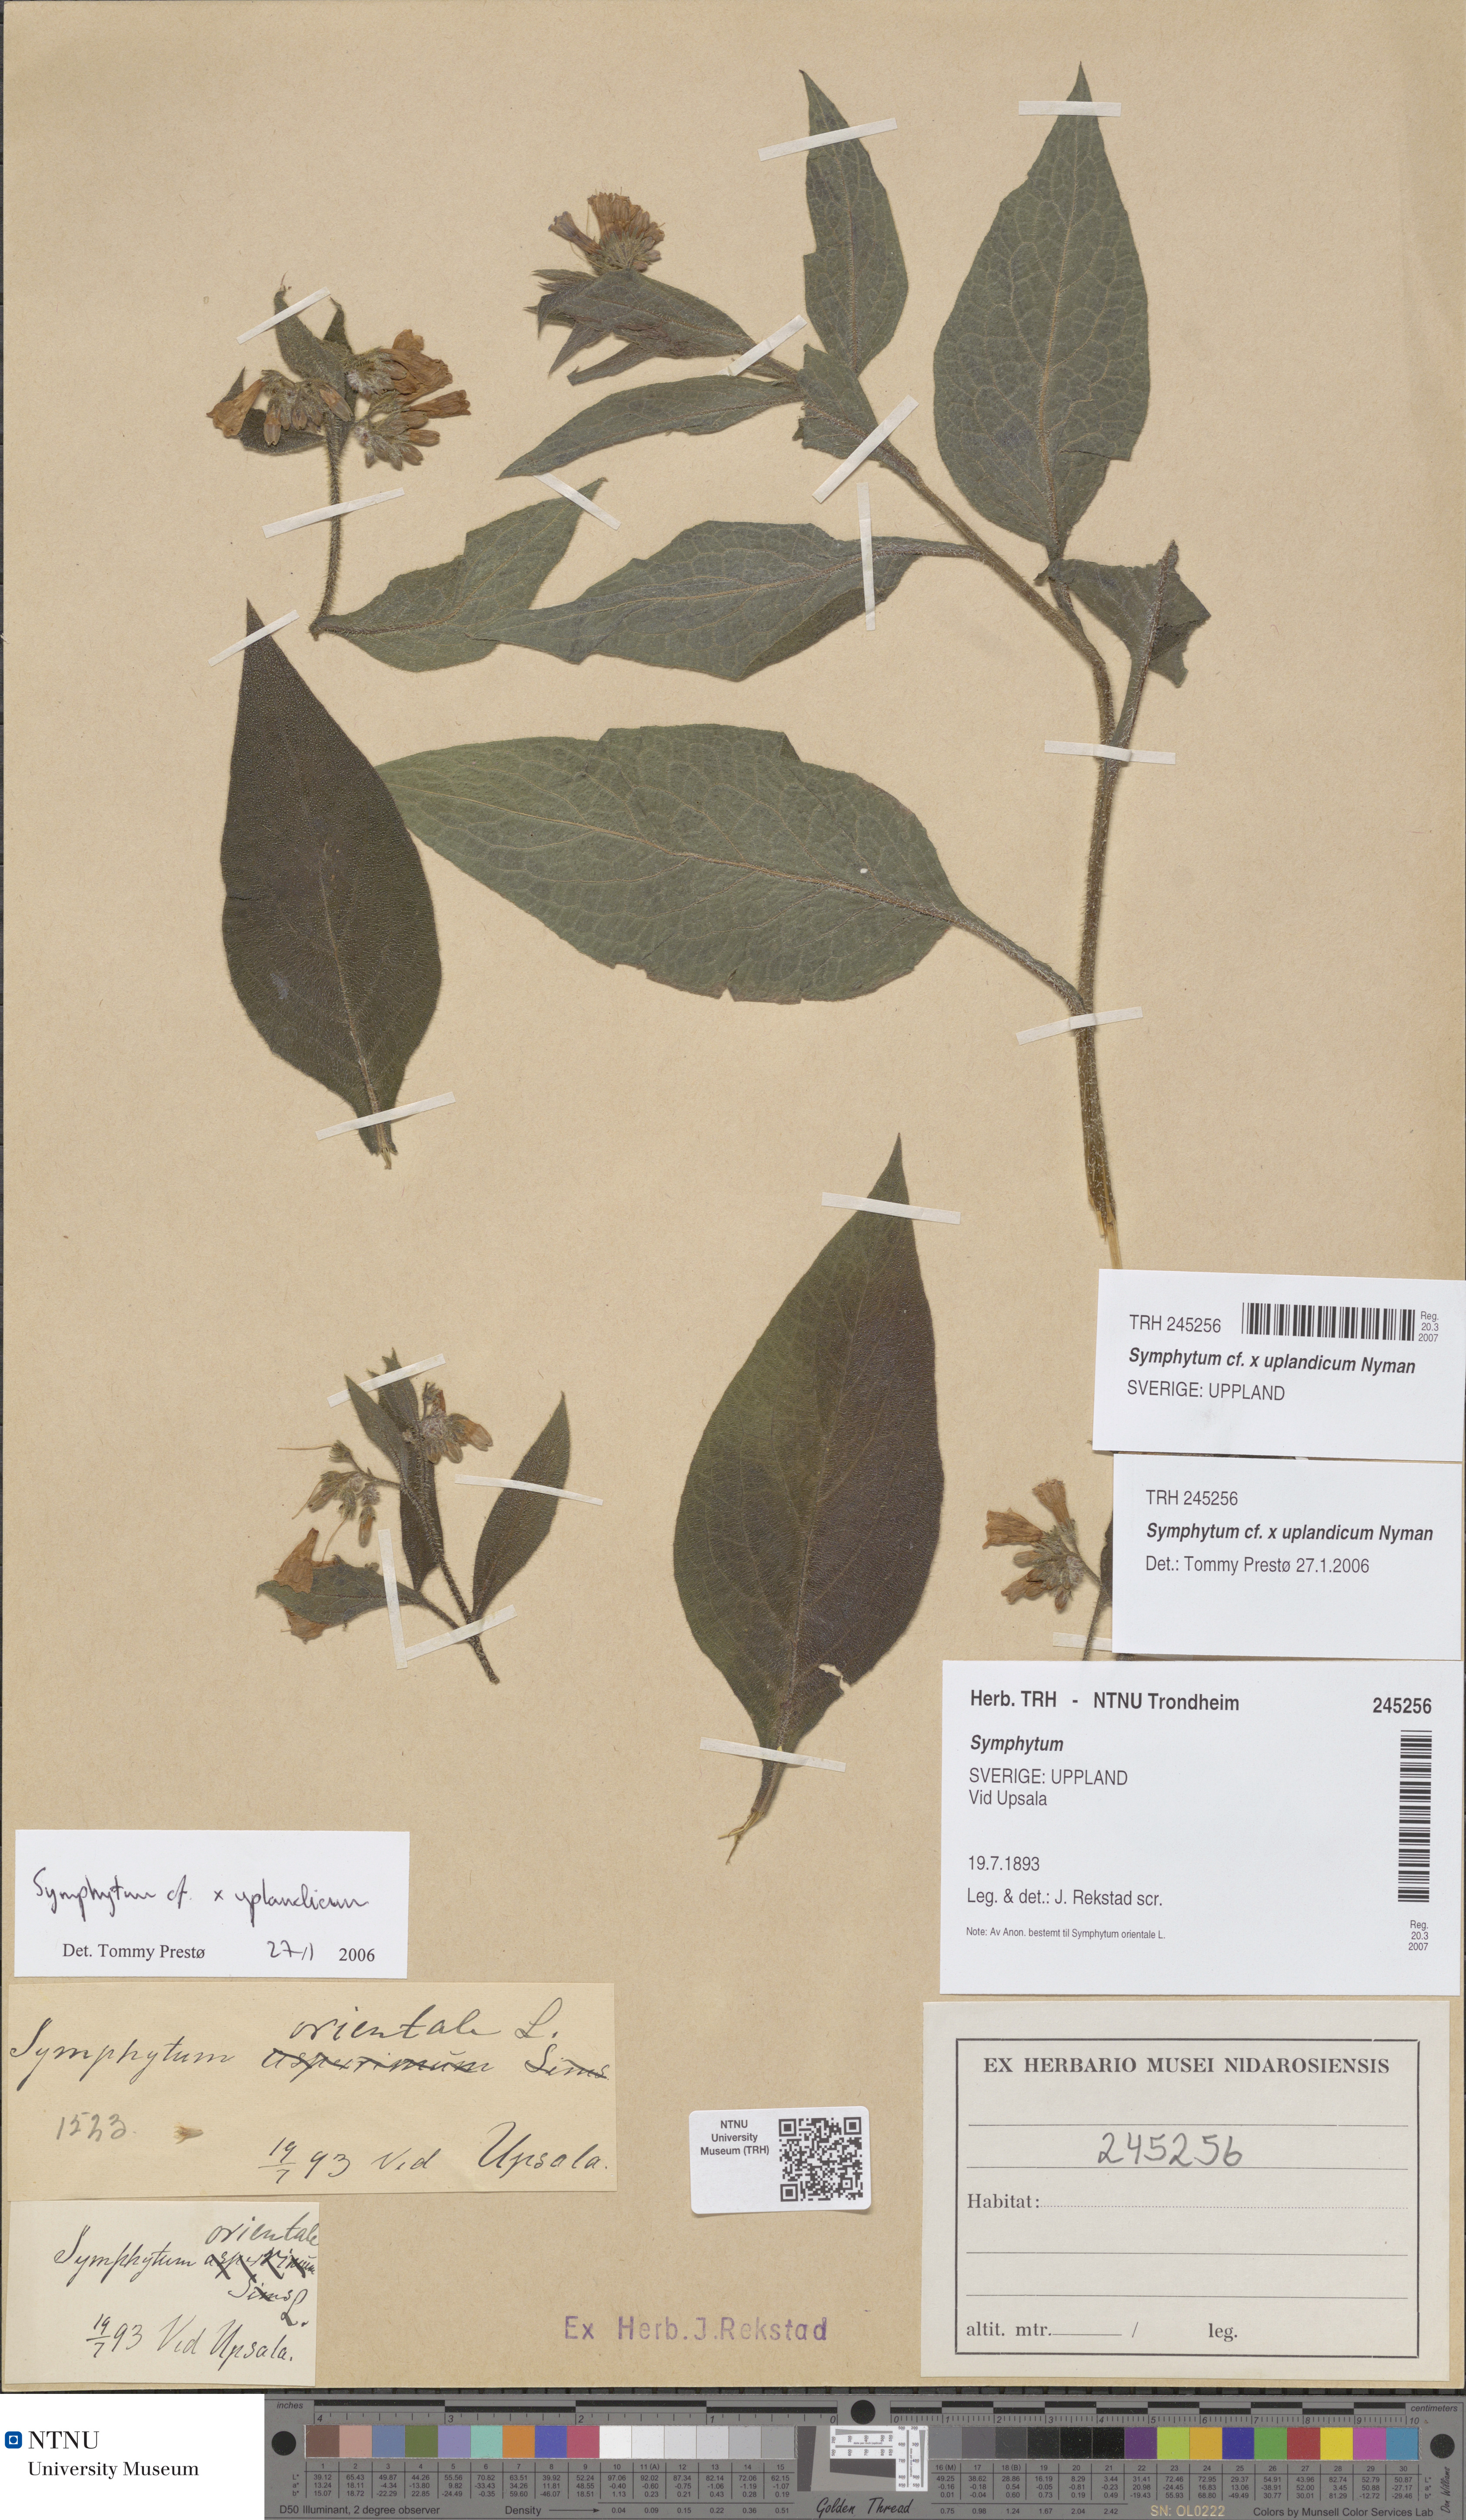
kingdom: Plantae
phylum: Tracheophyta
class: Magnoliopsida
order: Boraginales
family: Boraginaceae
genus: Symphytum
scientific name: Symphytum uplandicum
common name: Russian comfrey
